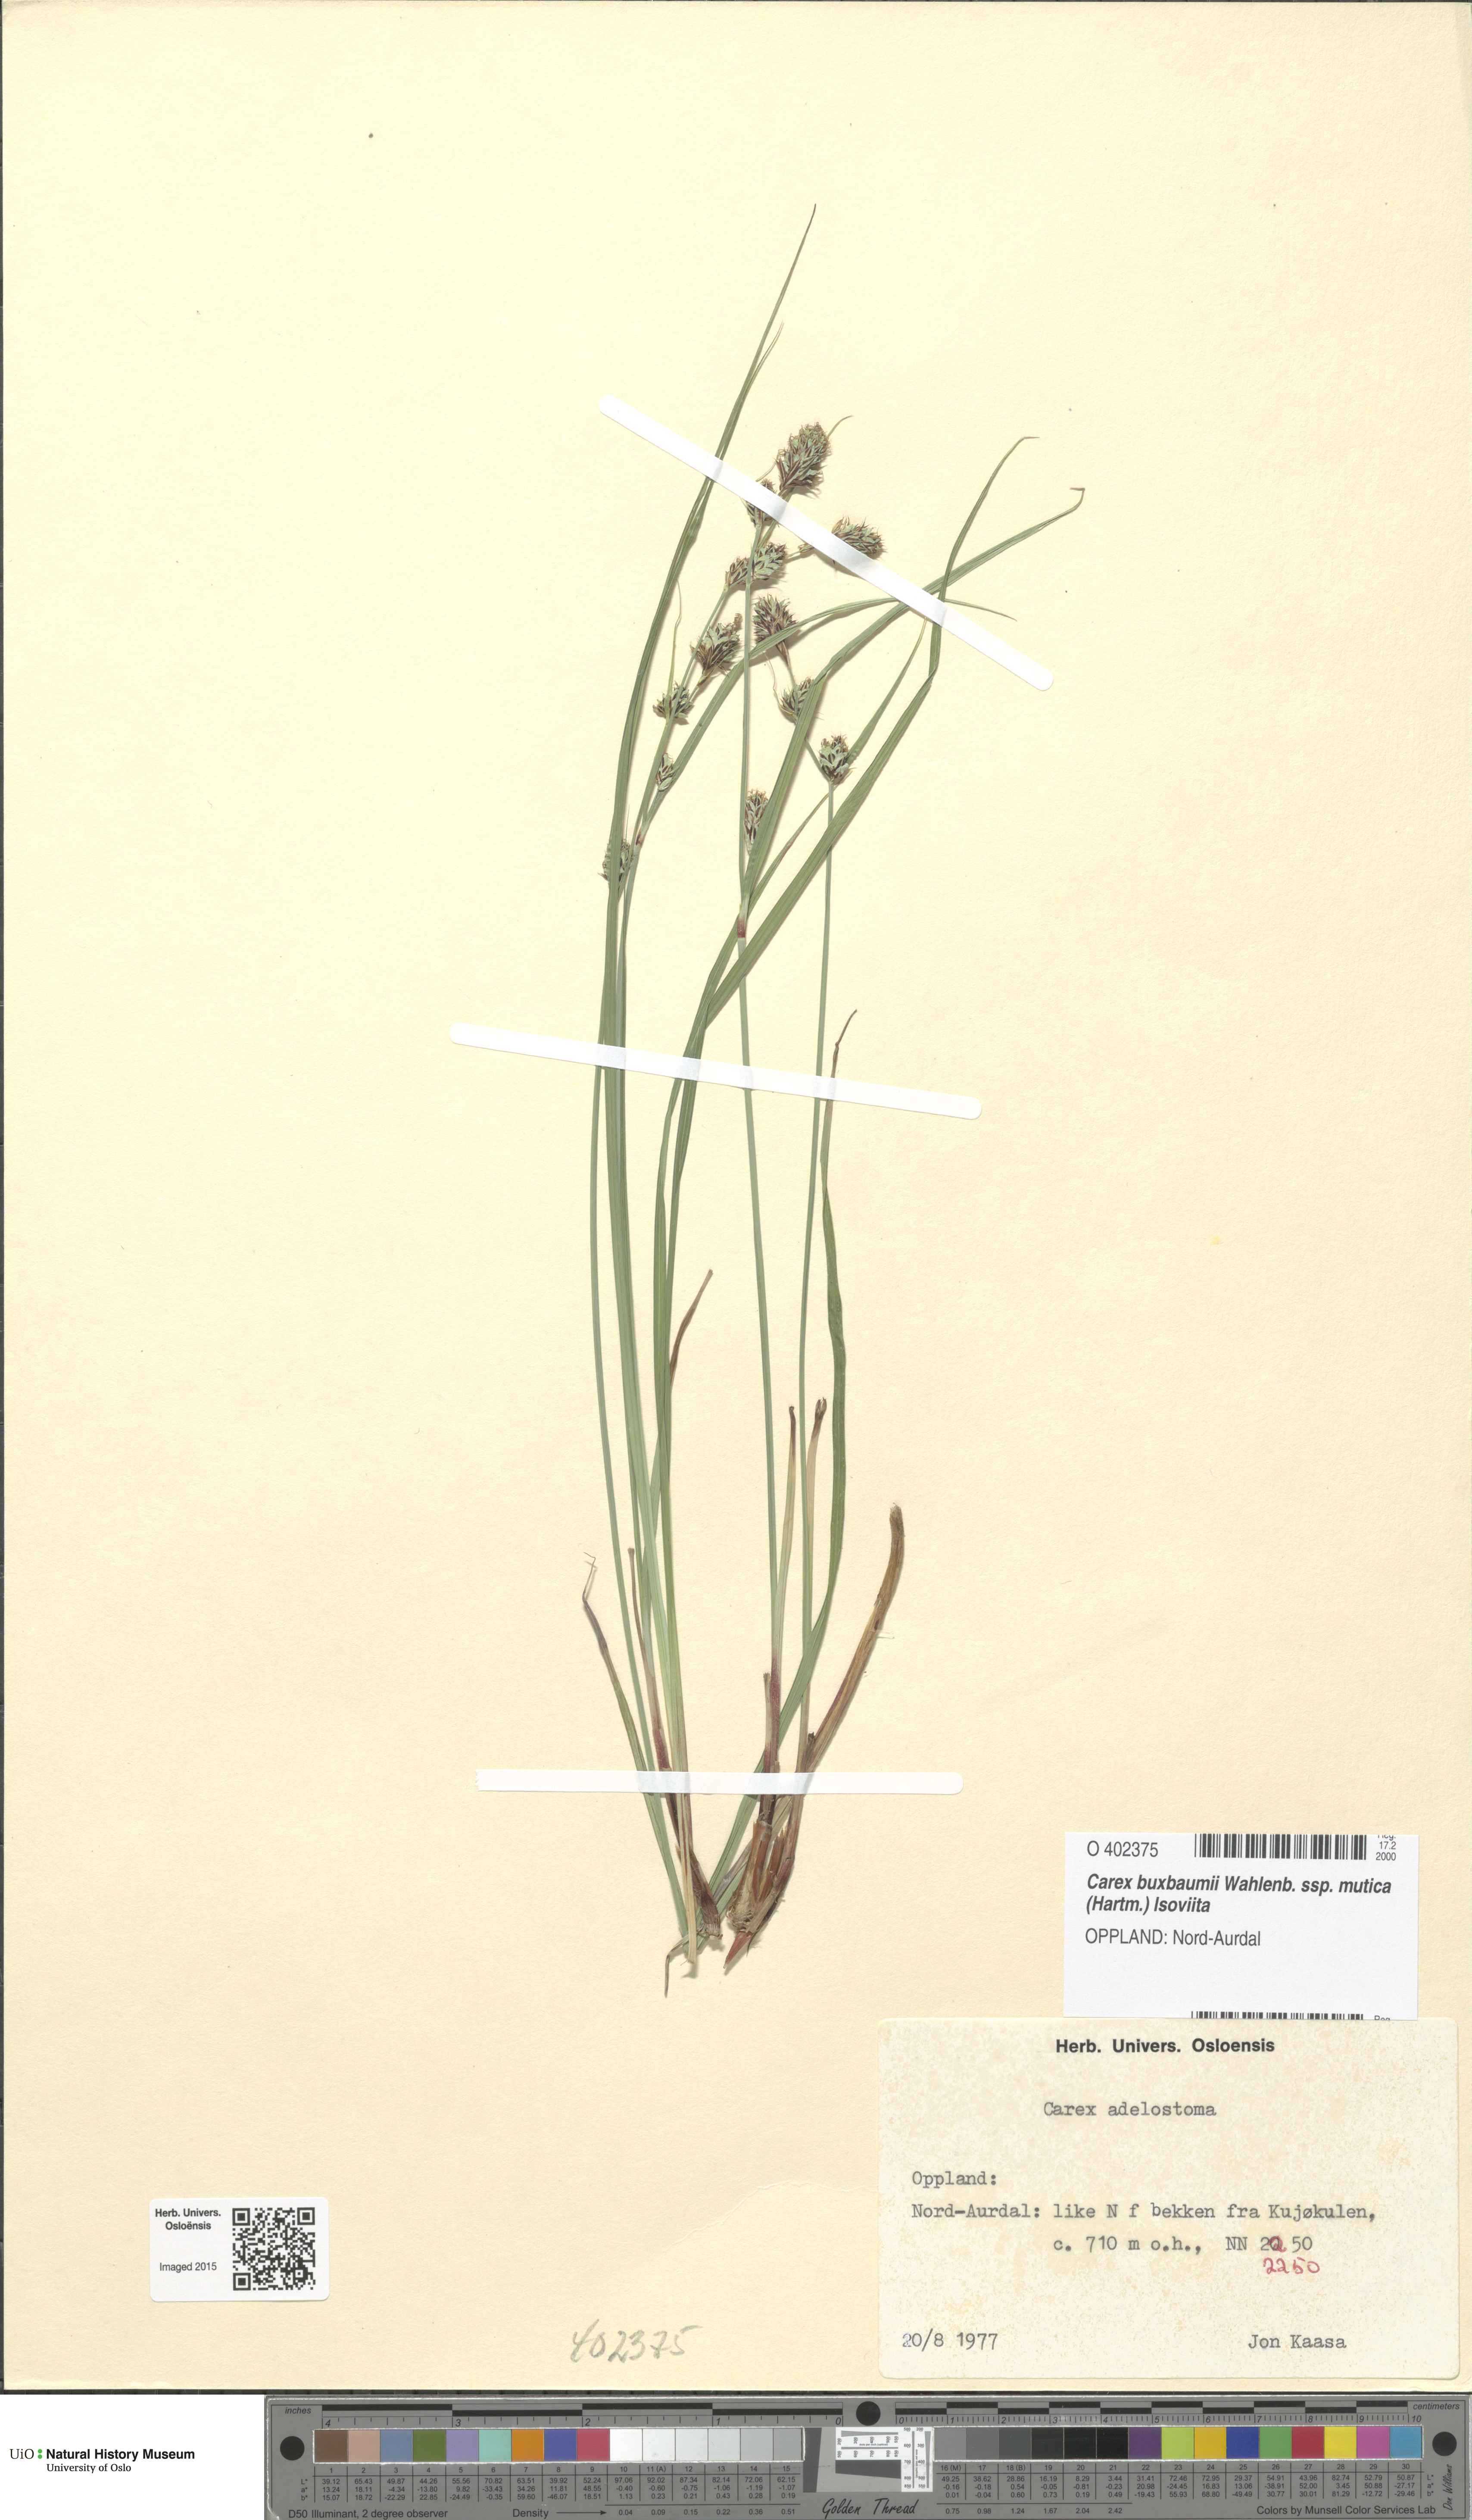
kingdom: Plantae
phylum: Tracheophyta
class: Liliopsida
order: Poales
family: Cyperaceae
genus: Carex
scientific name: Carex buxbaumii
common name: Club sedge
